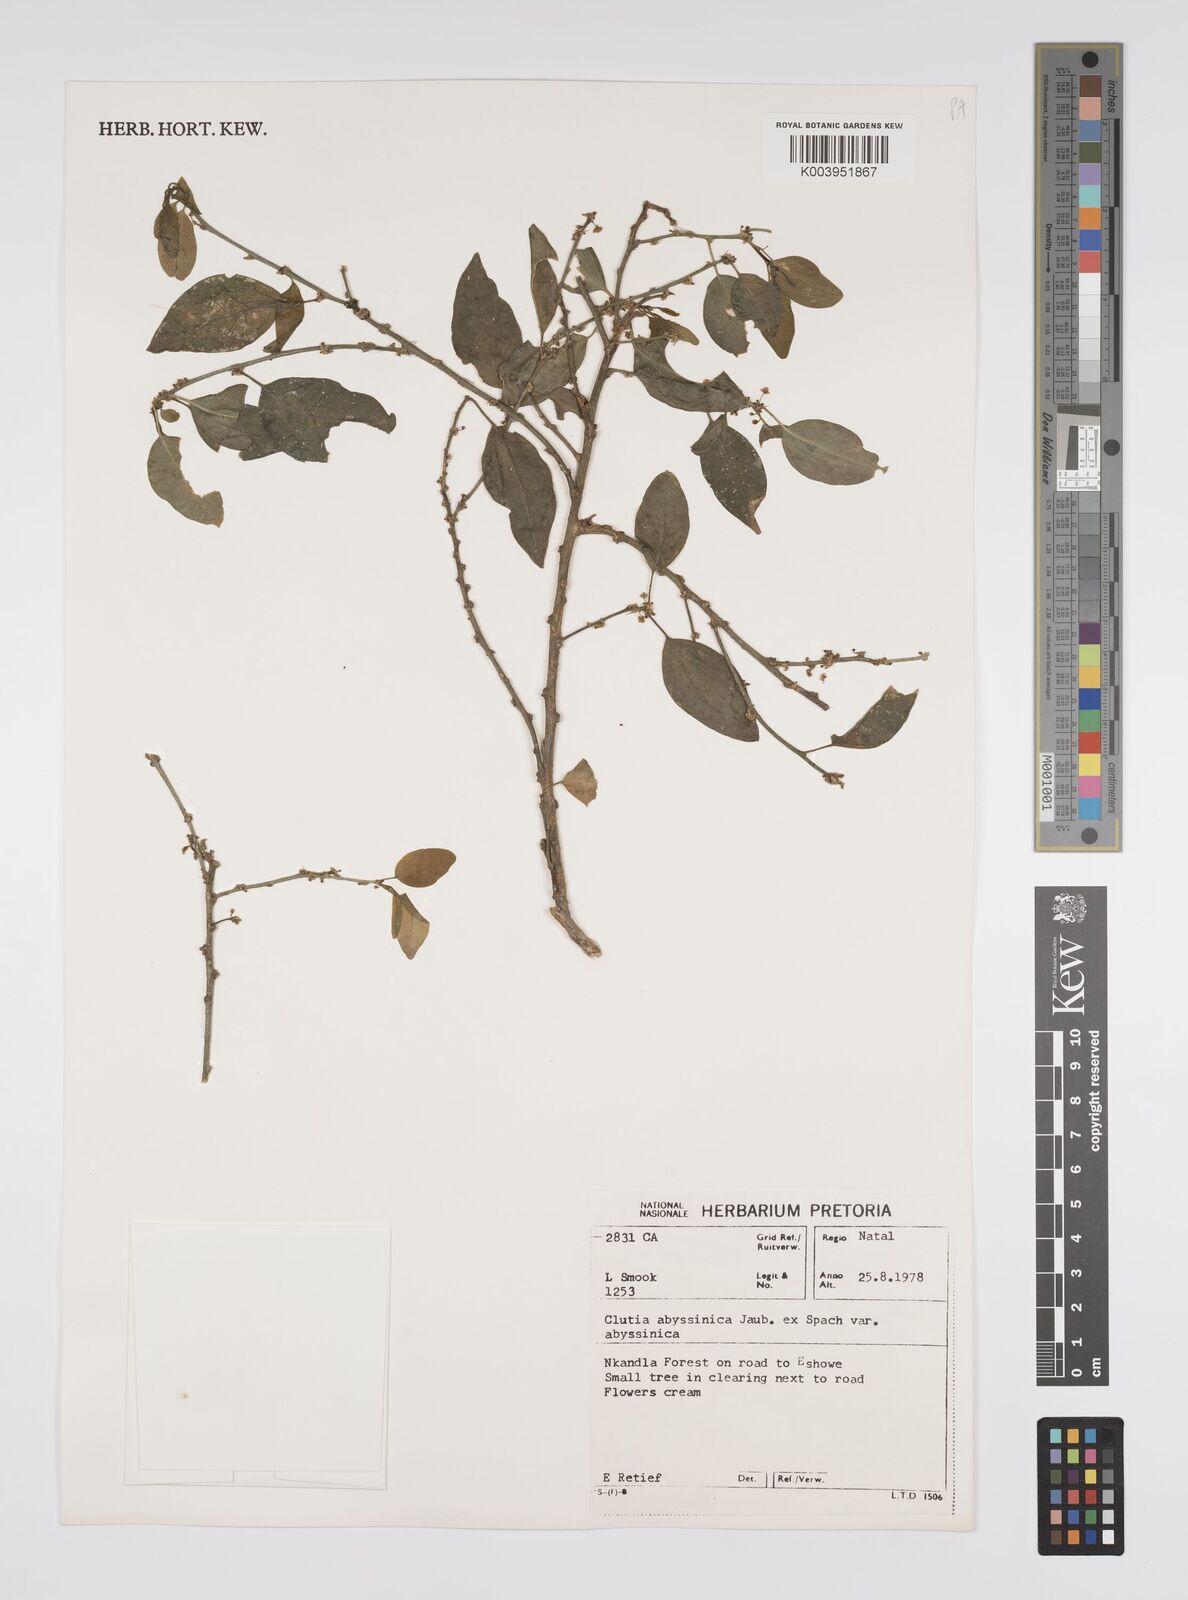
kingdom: Plantae
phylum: Tracheophyta
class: Magnoliopsida
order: Malpighiales
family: Peraceae
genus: Clutia
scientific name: Clutia abyssinica
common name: Large lightning bush
